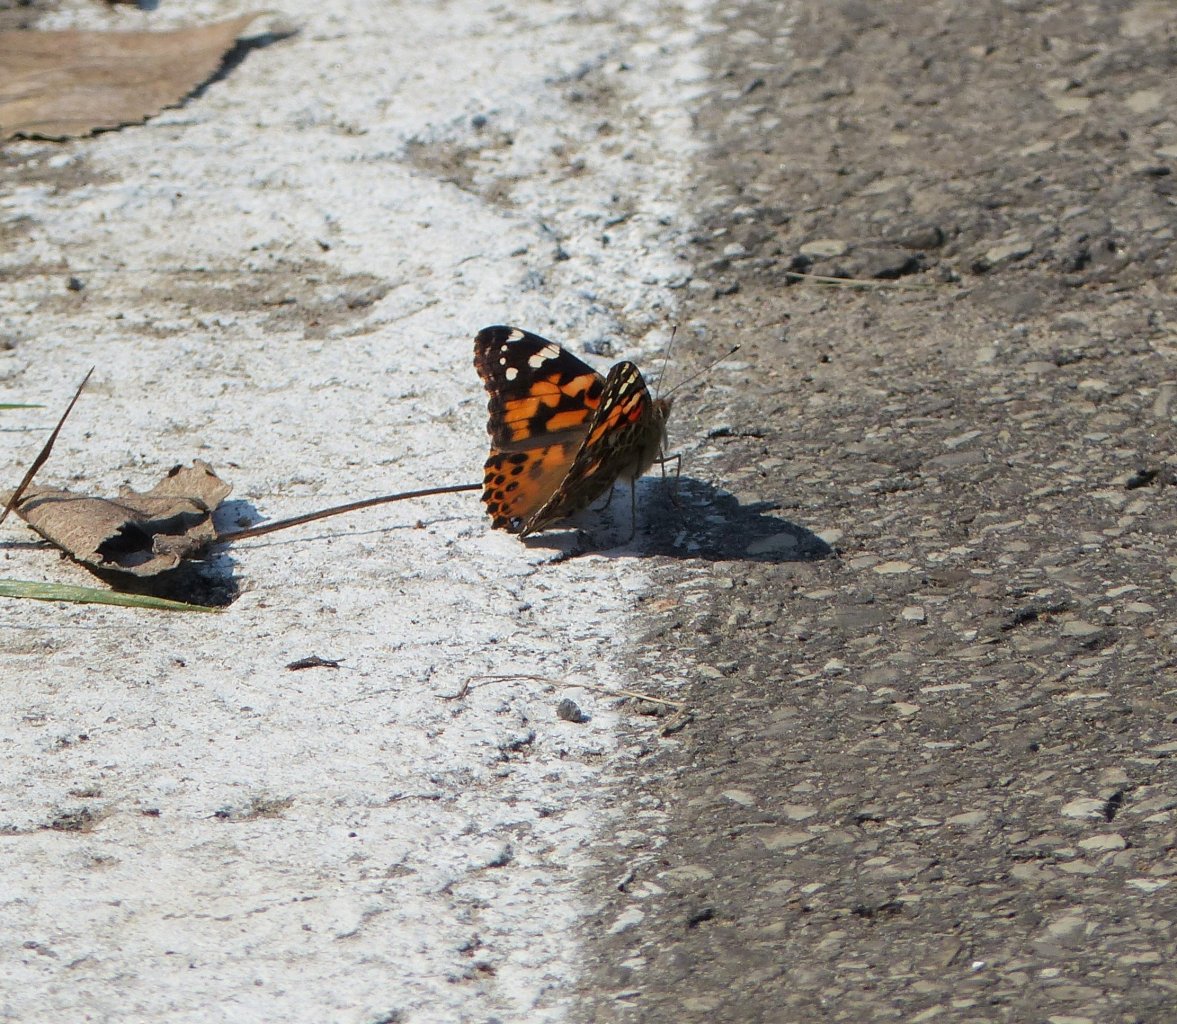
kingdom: Animalia
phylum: Arthropoda
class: Insecta
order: Lepidoptera
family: Nymphalidae
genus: Vanessa
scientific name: Vanessa cardui
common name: Painted Lady
